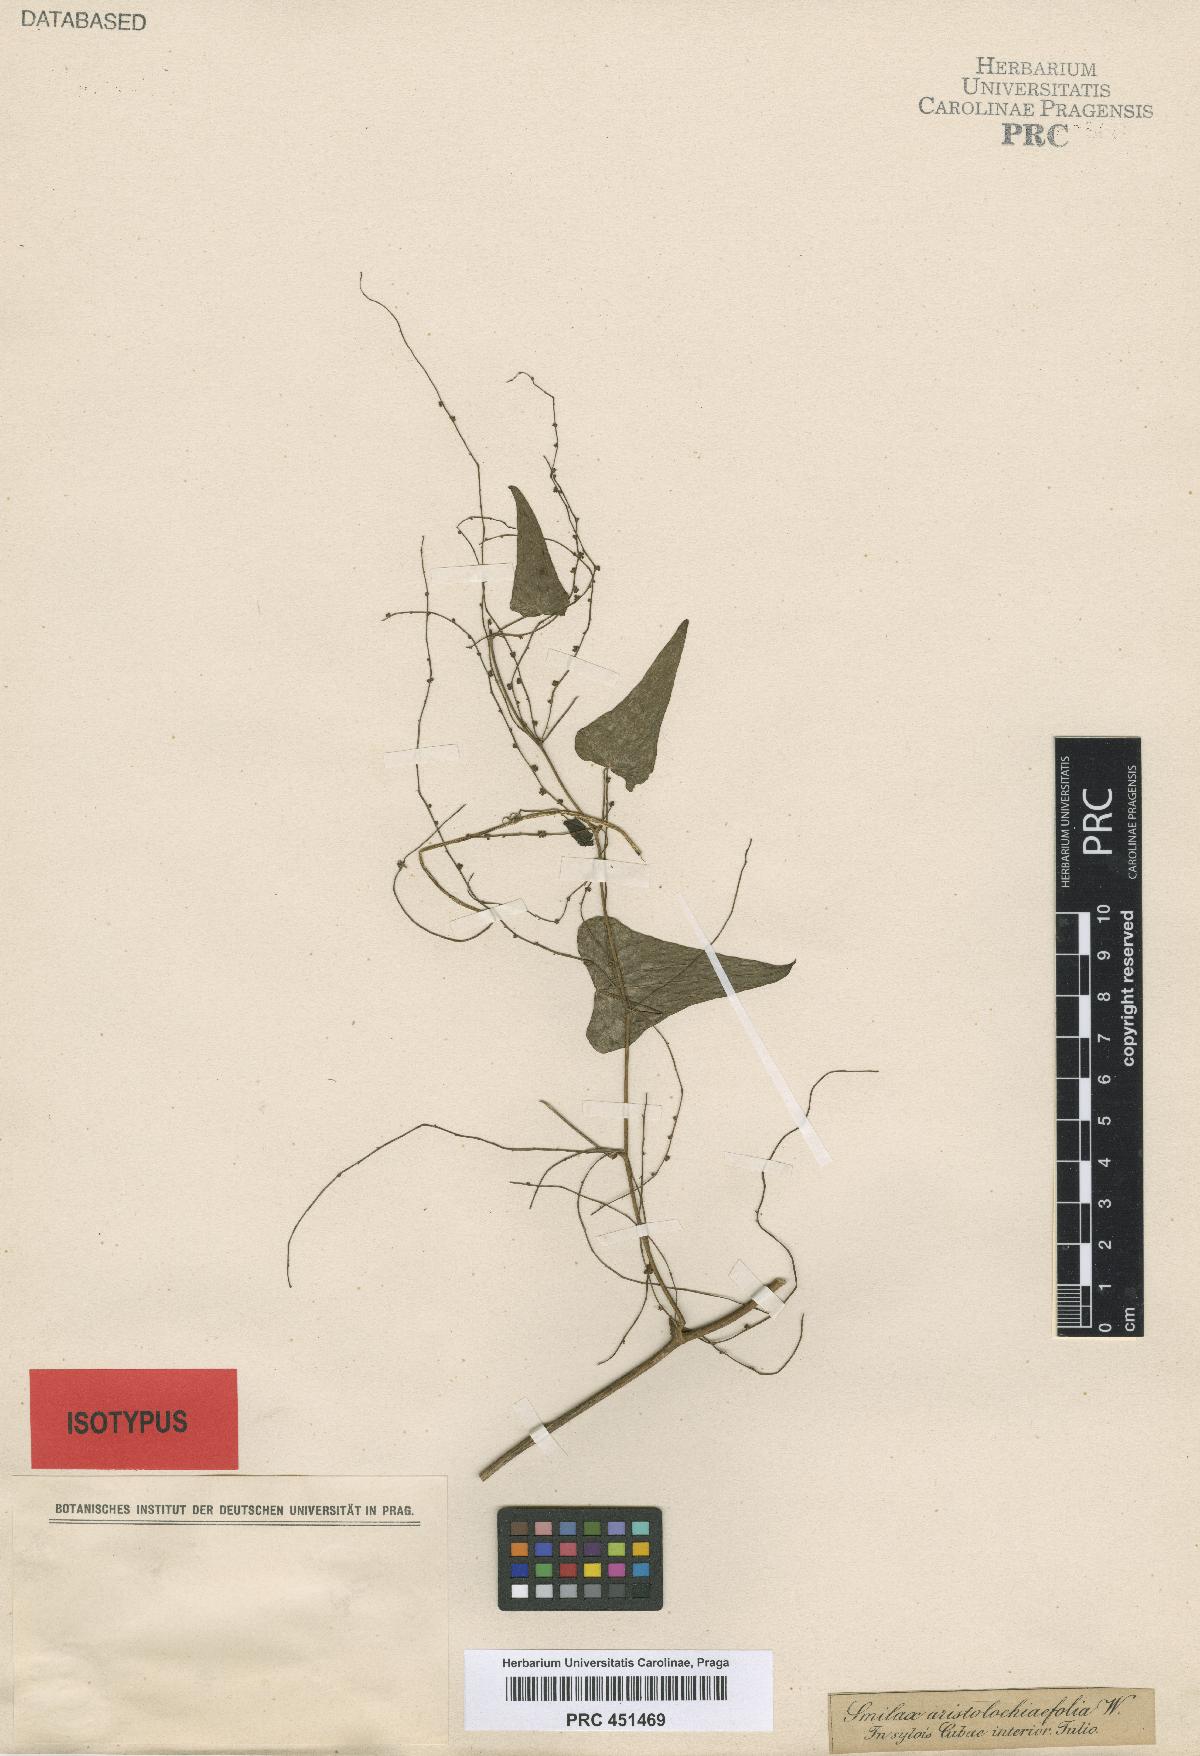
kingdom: Plantae
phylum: Tracheophyta
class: Liliopsida
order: Dioscoreales
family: Dioscoreaceae
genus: Dioscorea
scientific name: Dioscorea psilostachya
